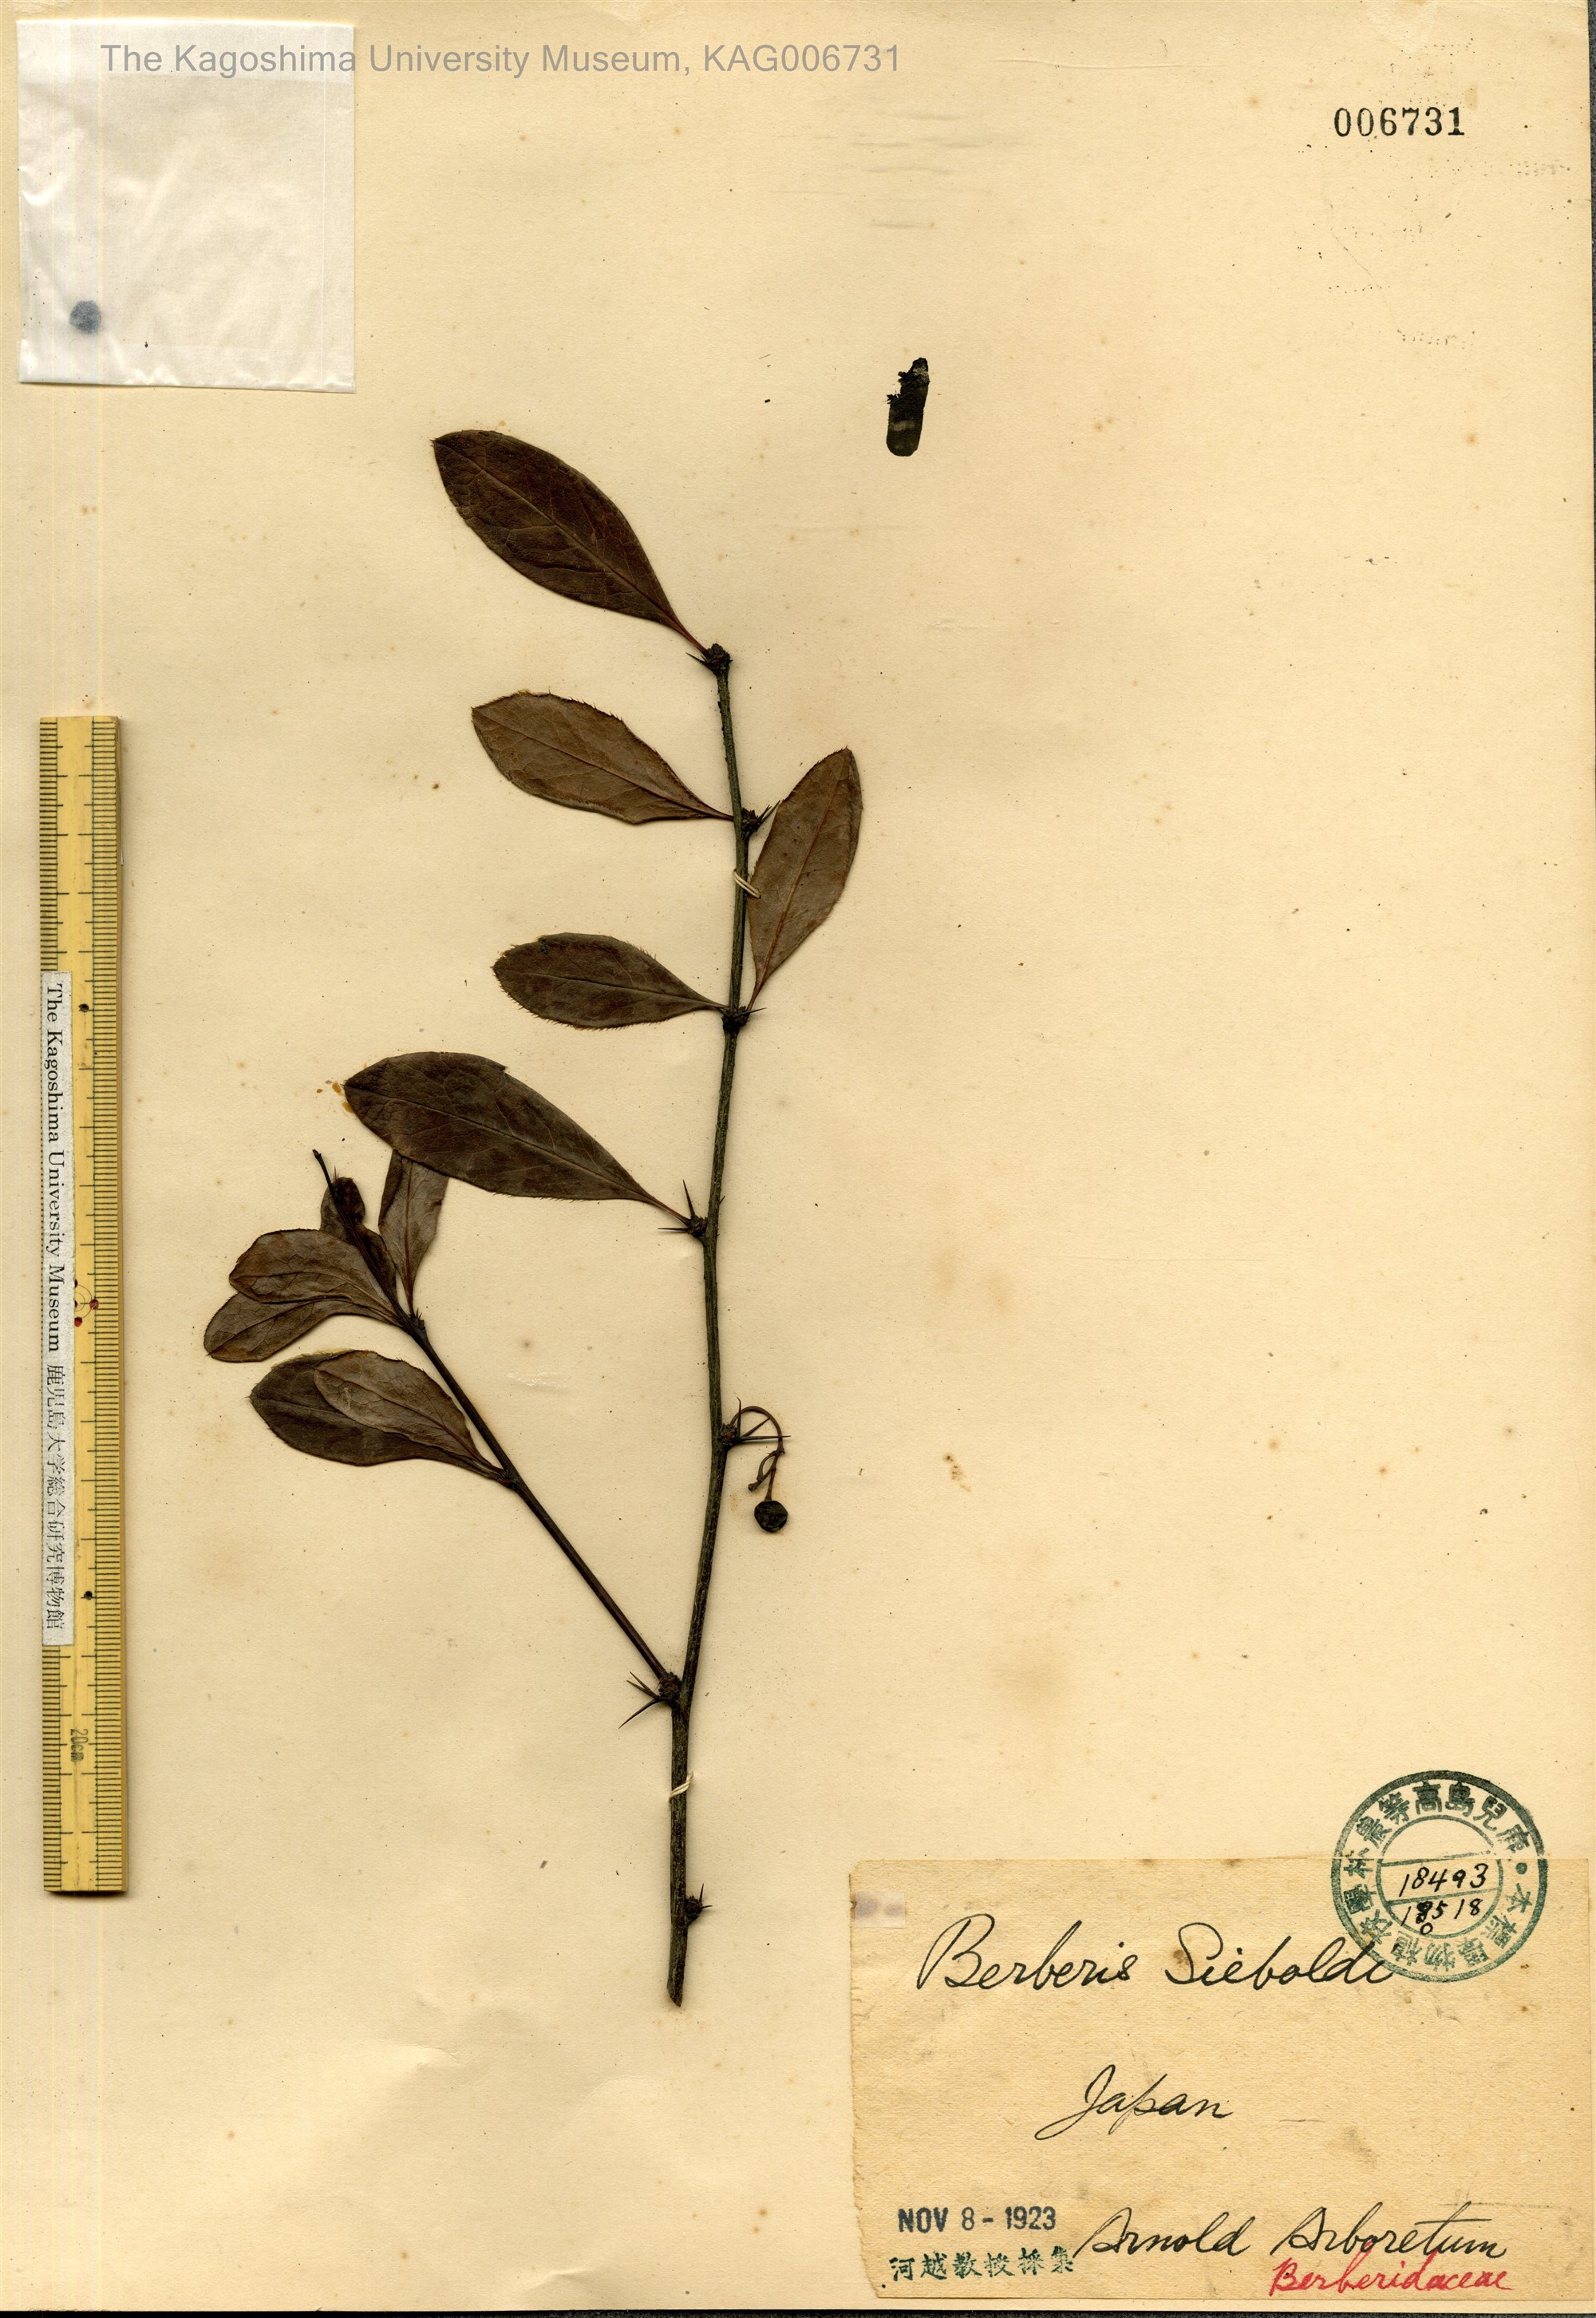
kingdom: Plantae
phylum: Tracheophyta
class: Magnoliopsida
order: Ranunculales
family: Berberidaceae
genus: Berberis
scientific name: Berberis sieboldii
